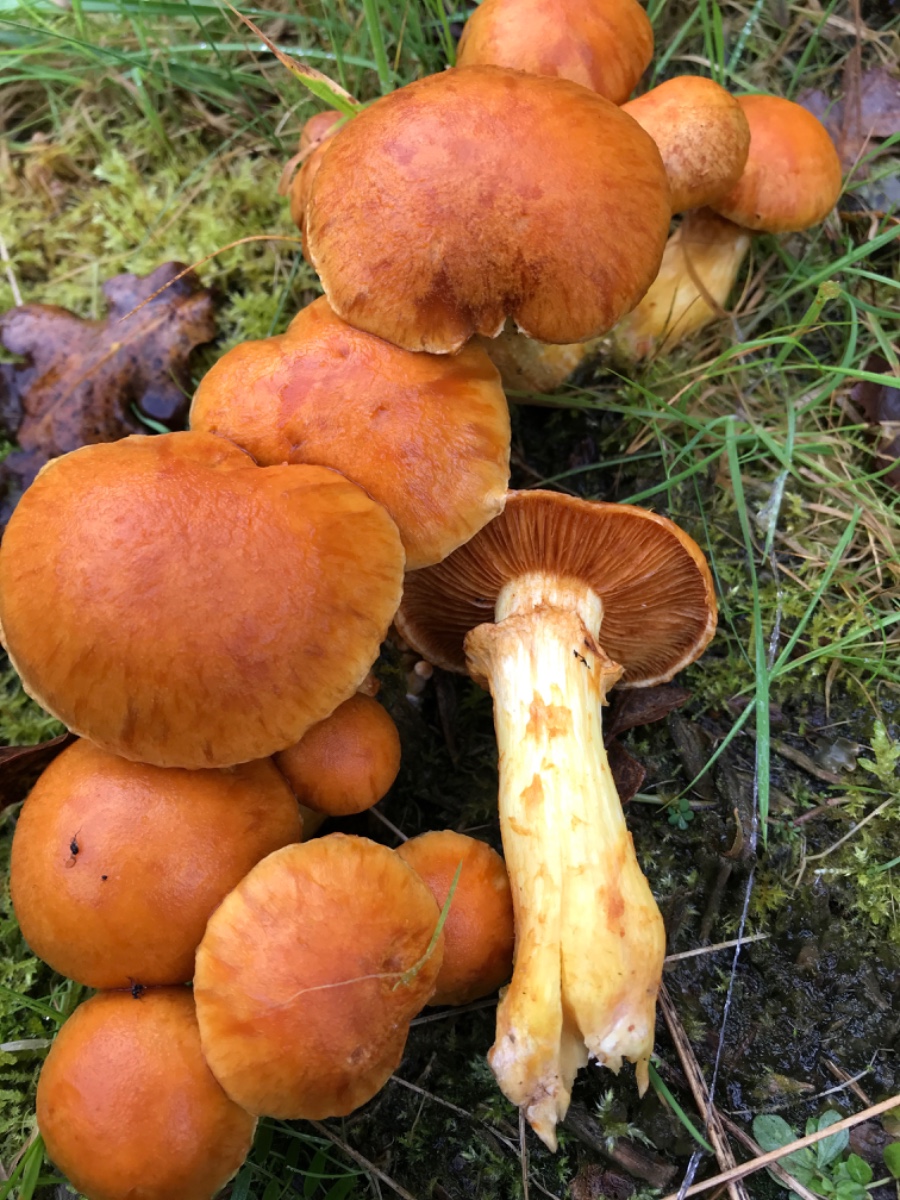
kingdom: Fungi
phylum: Basidiomycota
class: Agaricomycetes
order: Agaricales
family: Hymenogastraceae
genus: Gymnopilus
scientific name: Gymnopilus spectabilis
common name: fibret flammehat
